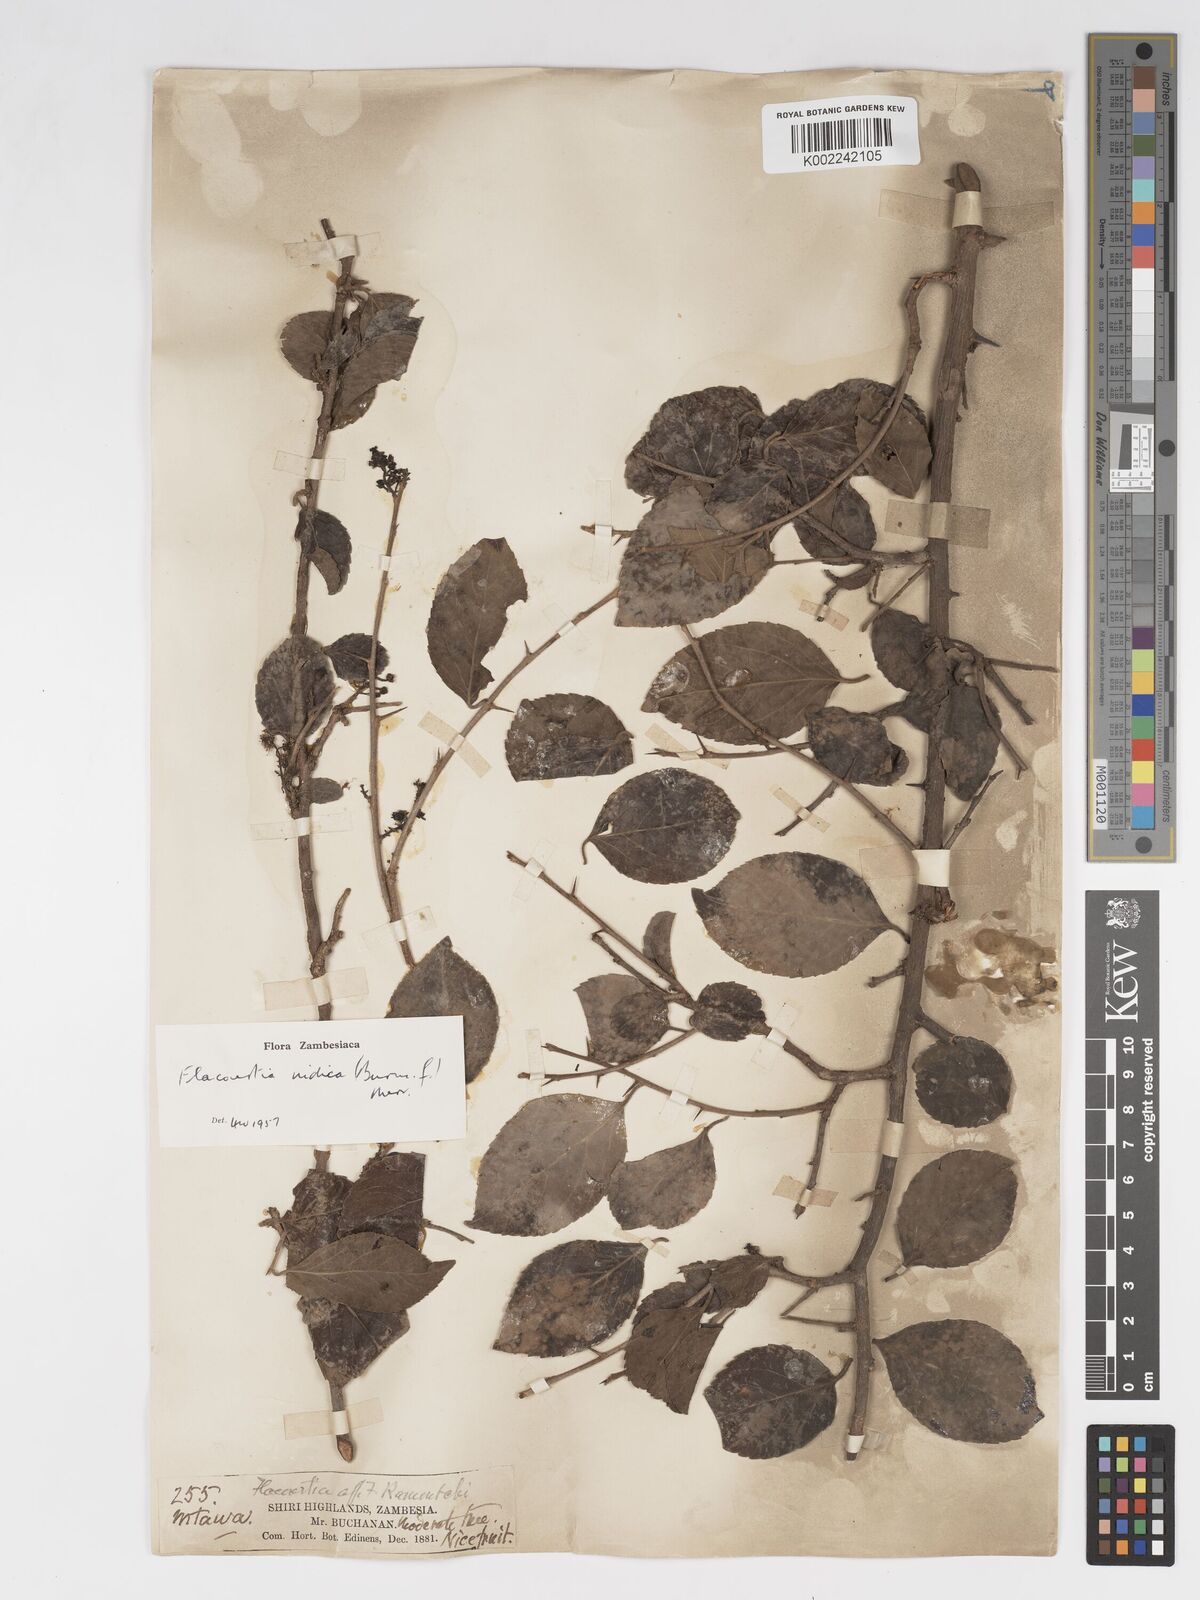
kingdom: Plantae
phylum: Tracheophyta
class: Magnoliopsida
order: Malpighiales
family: Salicaceae
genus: Flacourtia
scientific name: Flacourtia indica
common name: Governor's plum
